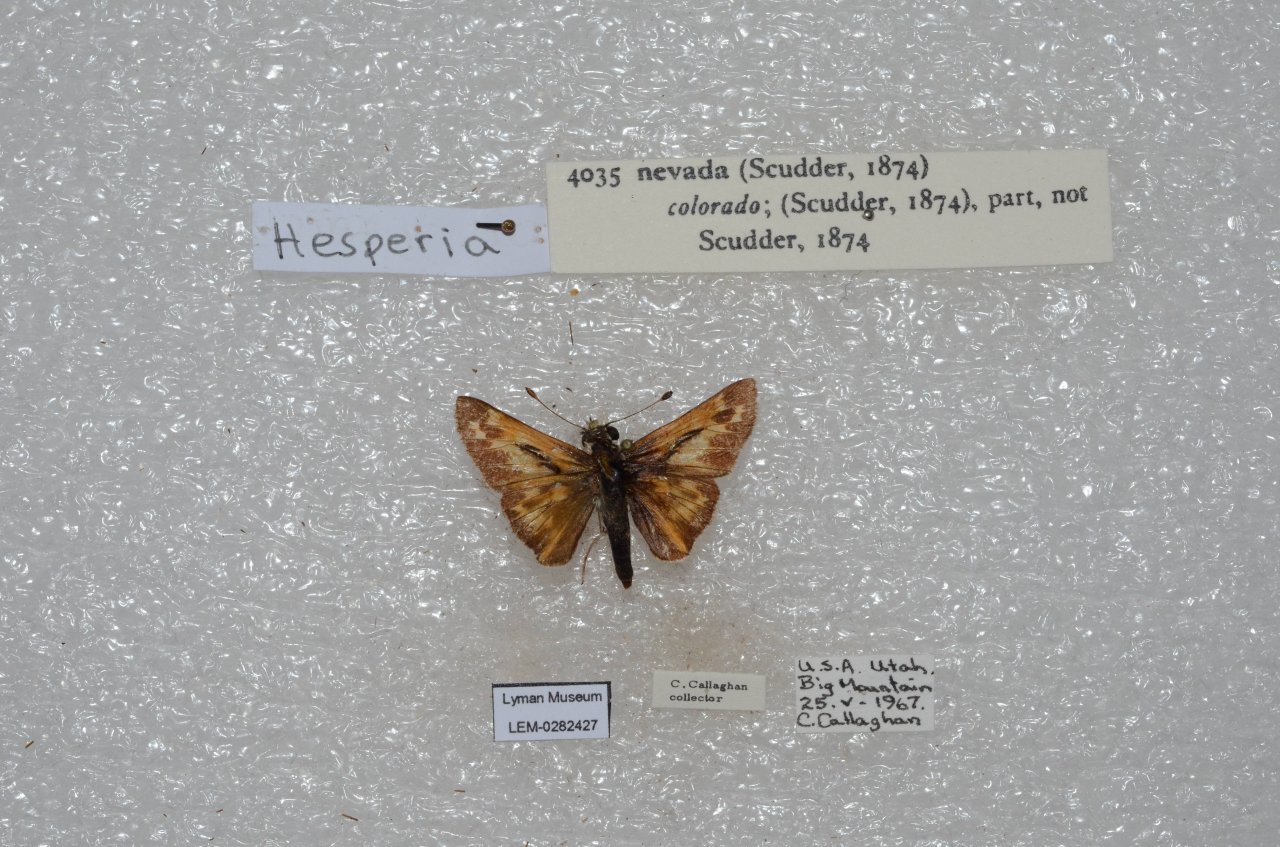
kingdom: Animalia
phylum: Arthropoda
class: Insecta
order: Lepidoptera
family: Hesperiidae
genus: Hesperia
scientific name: Hesperia nevada
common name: Nevada Skipper
